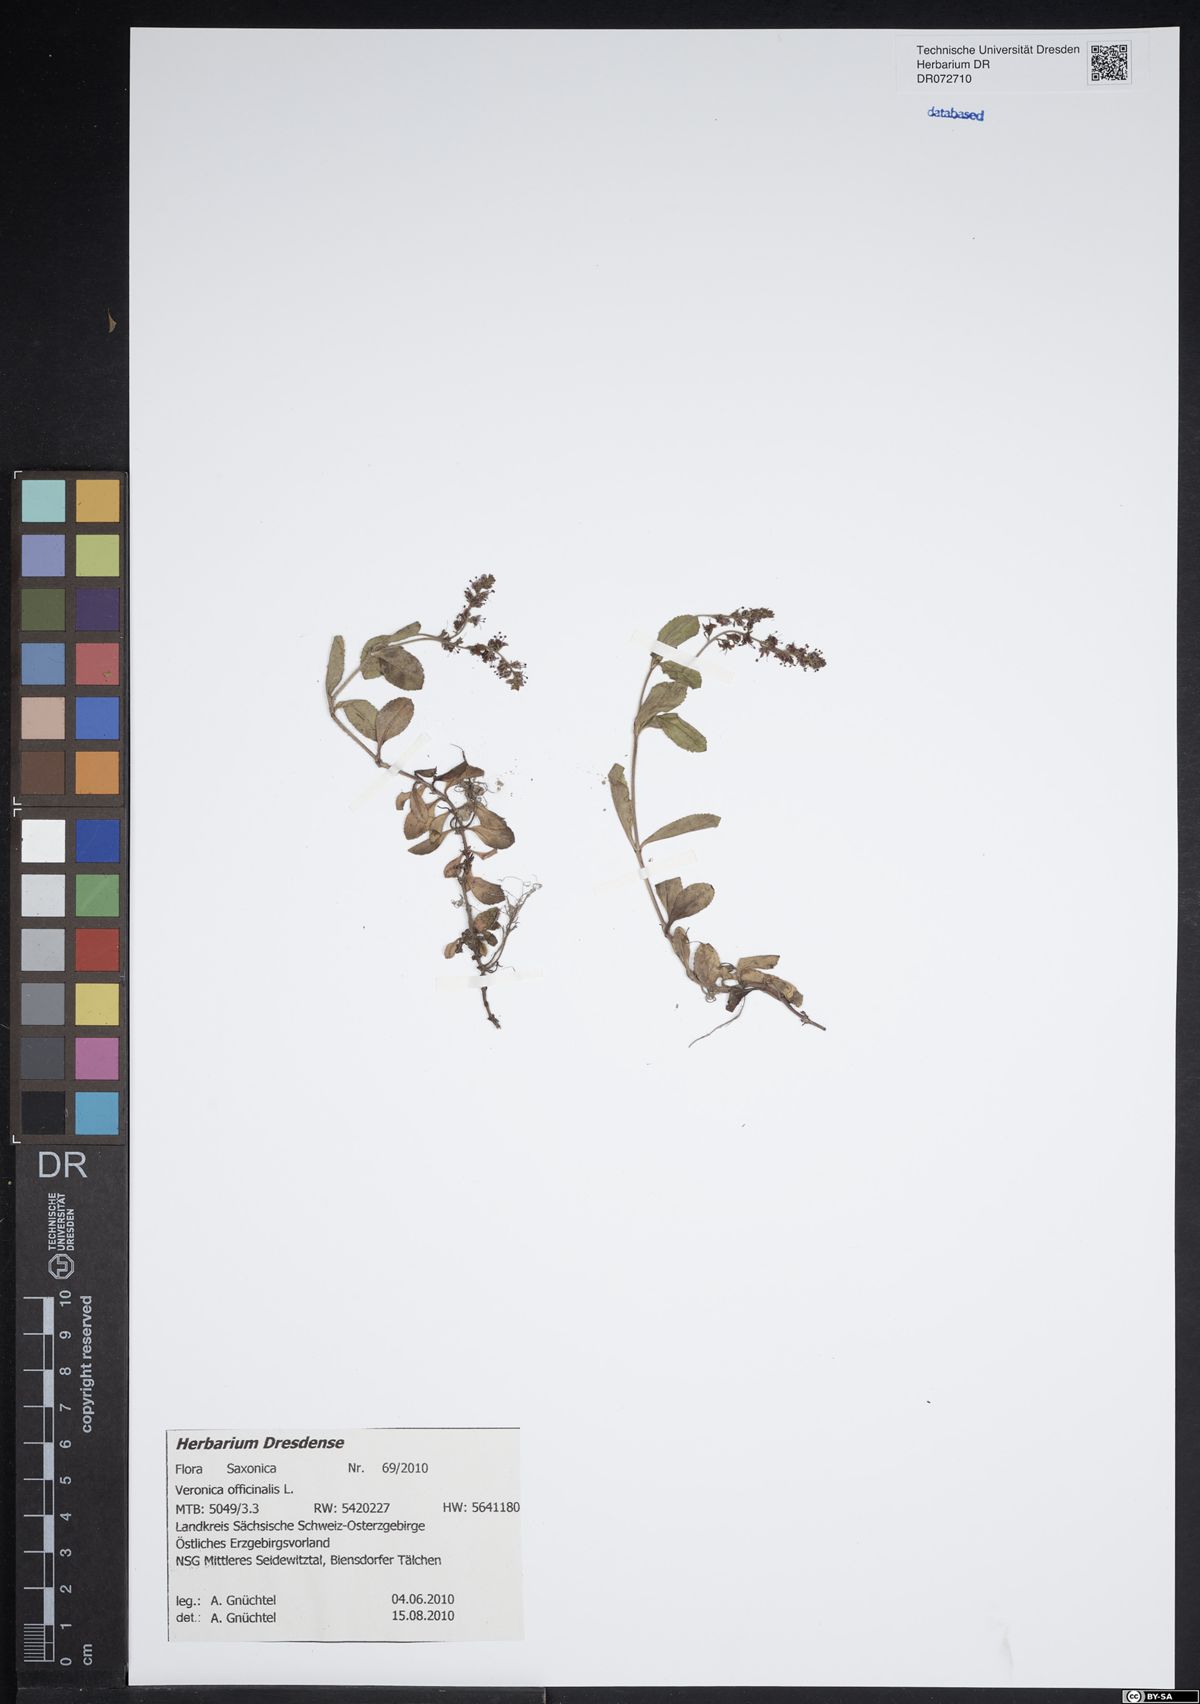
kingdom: Plantae
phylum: Tracheophyta
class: Magnoliopsida
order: Lamiales
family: Plantaginaceae
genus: Veronica
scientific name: Veronica officinalis
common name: Common speedwell
